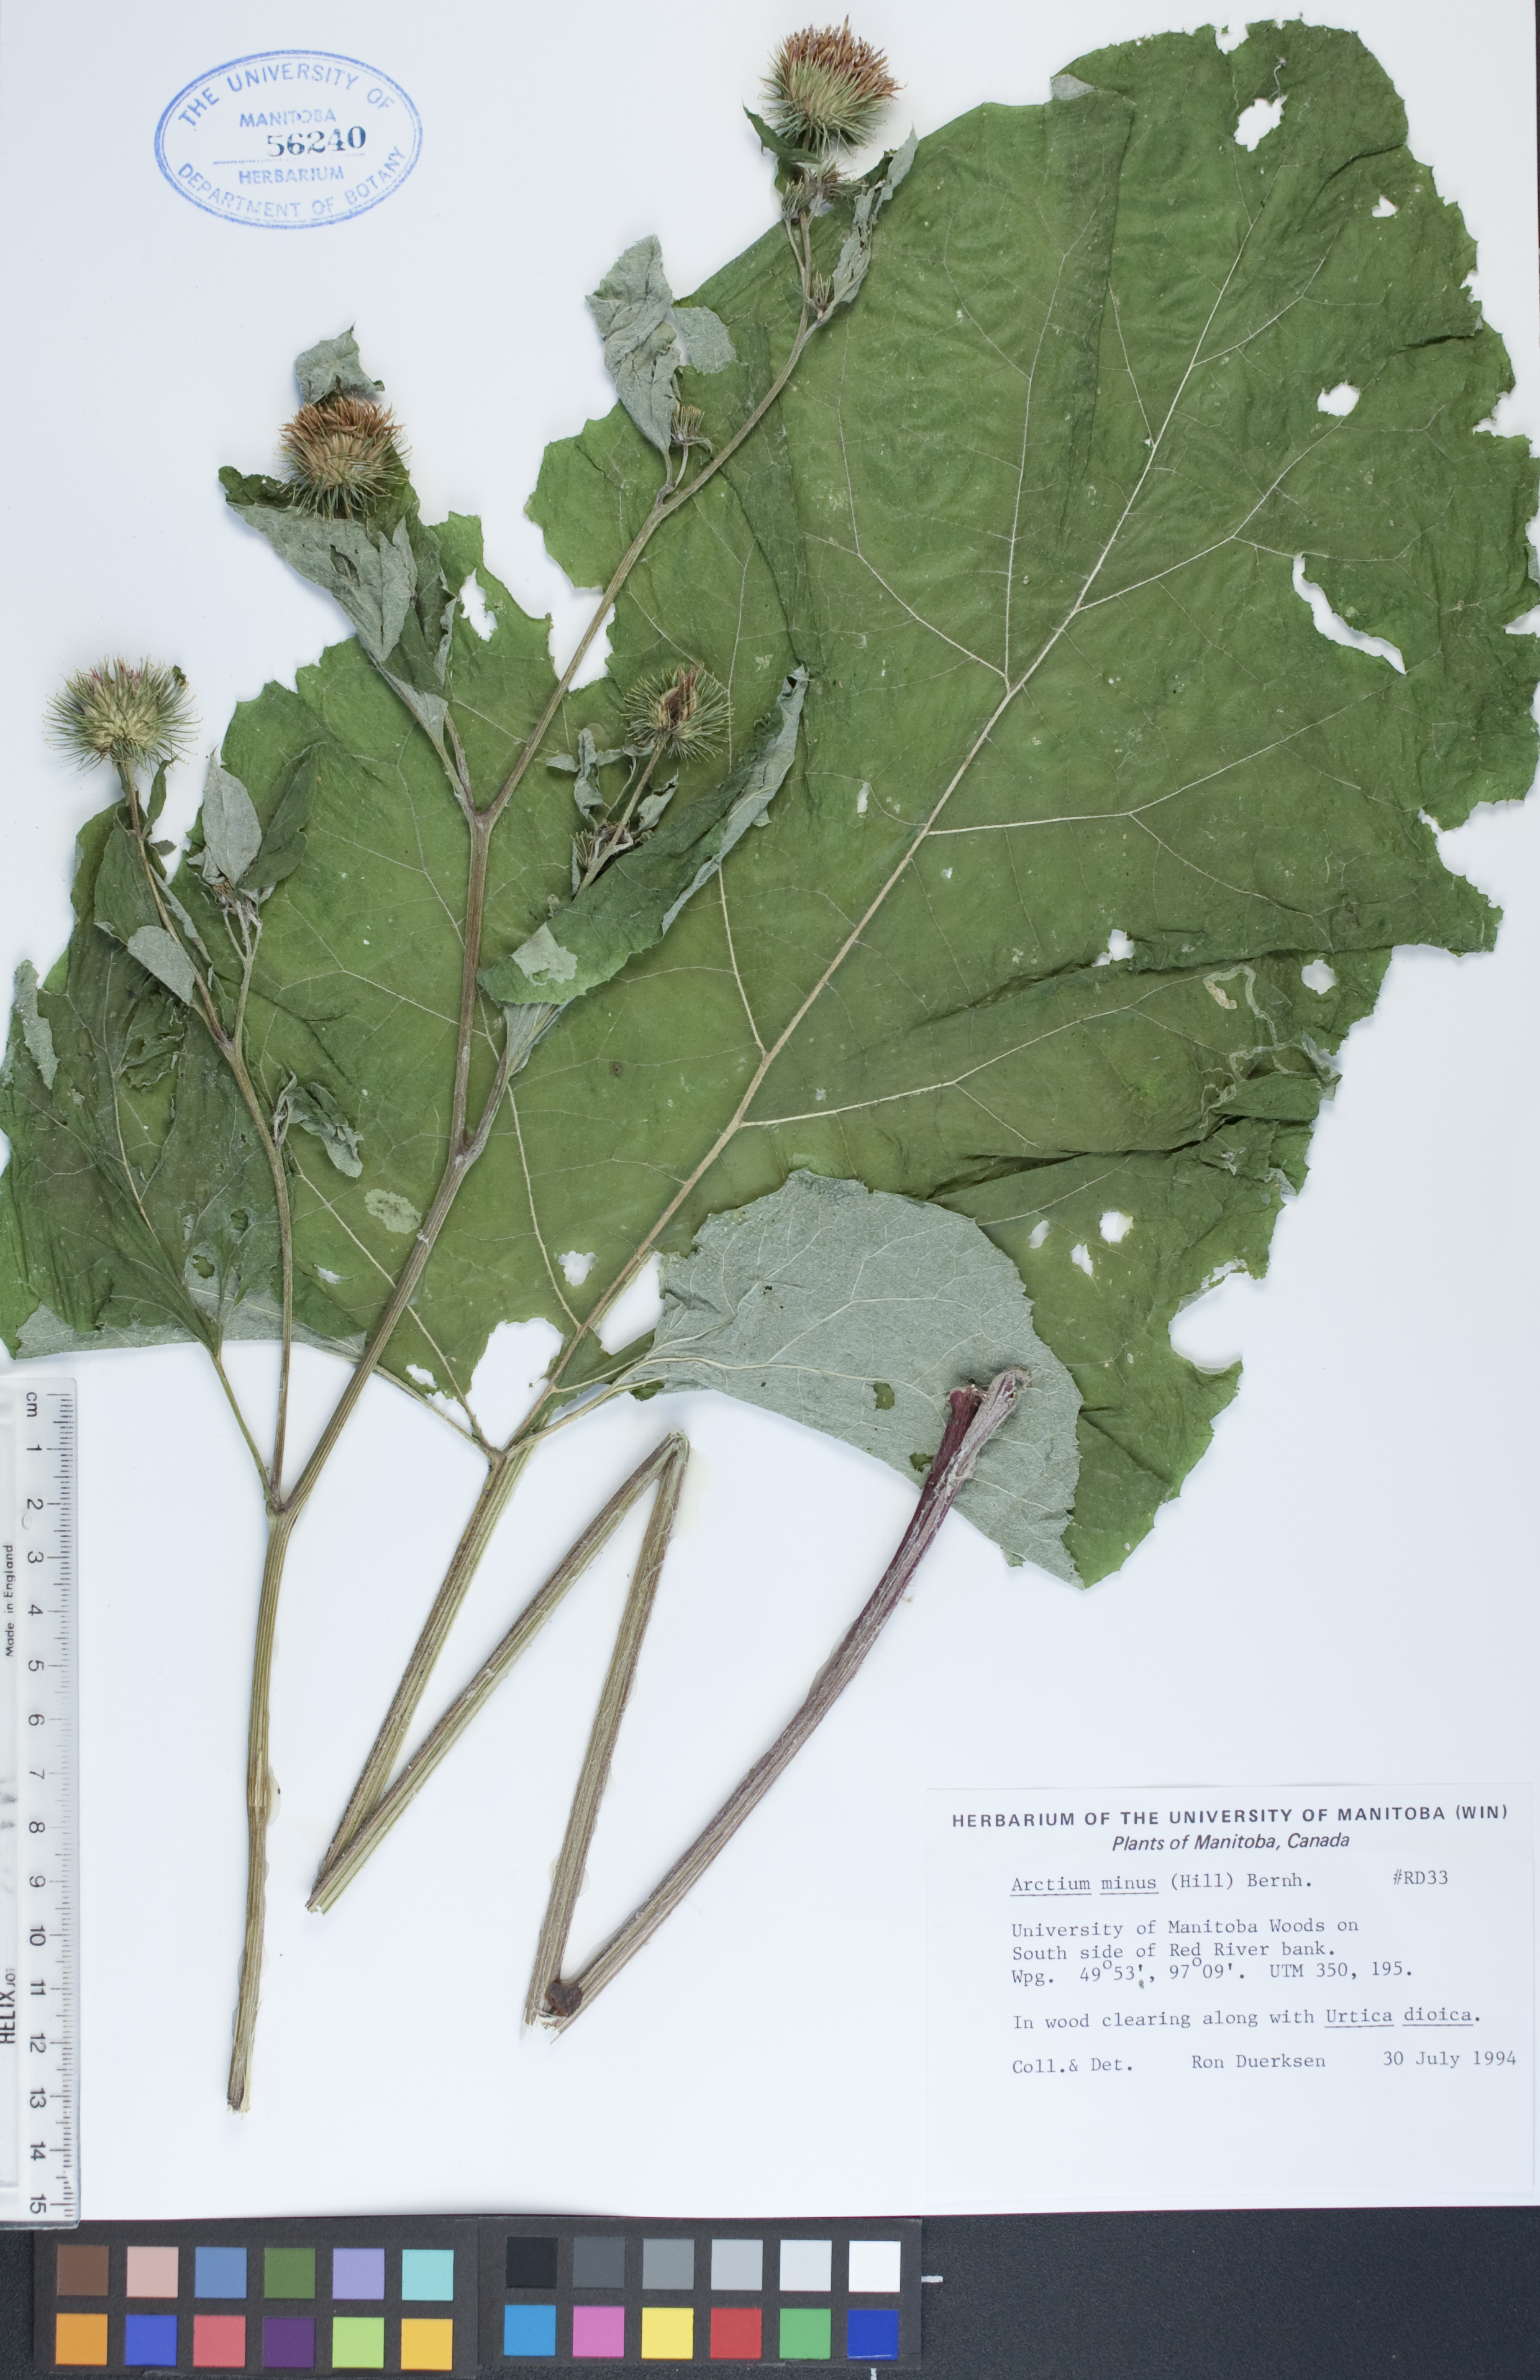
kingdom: Plantae
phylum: Tracheophyta
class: Magnoliopsida
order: Asterales
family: Asteraceae
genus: Arctium
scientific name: Arctium minus
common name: Lesser burdock
